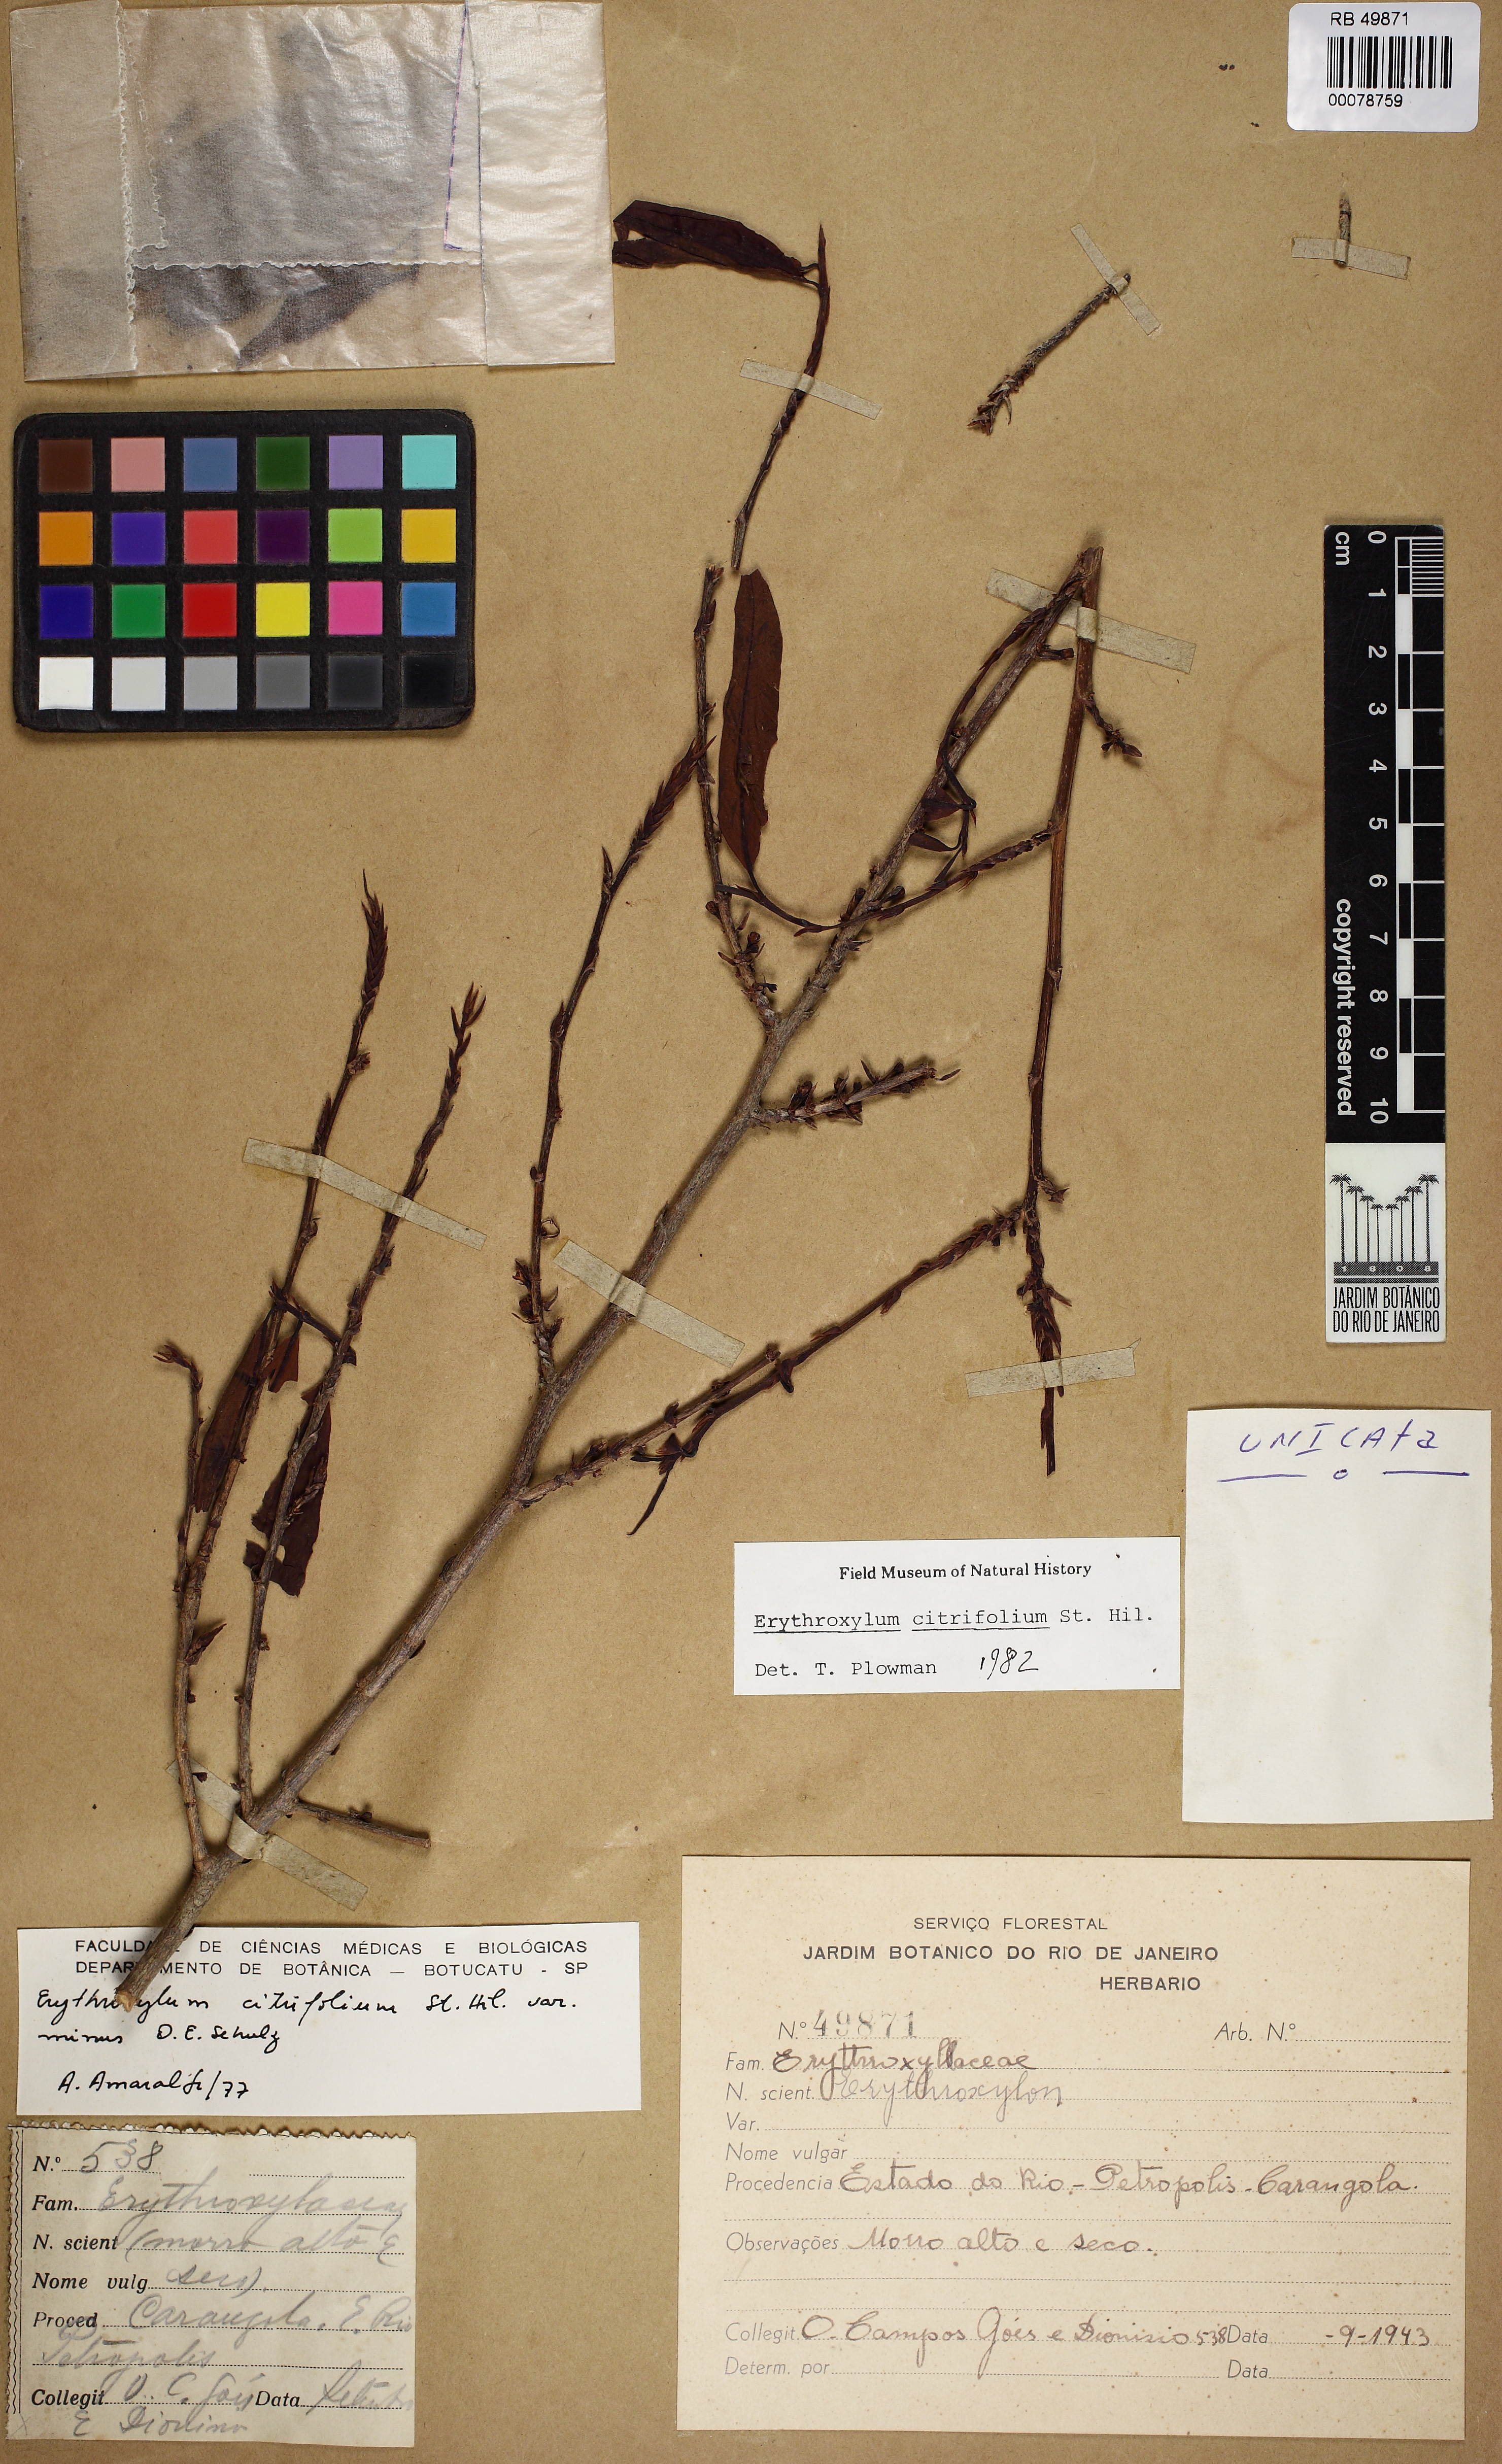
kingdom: Plantae
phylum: Tracheophyta
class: Magnoliopsida
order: Malpighiales
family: Erythroxylaceae
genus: Erythroxylum
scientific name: Erythroxylum citrifolium
